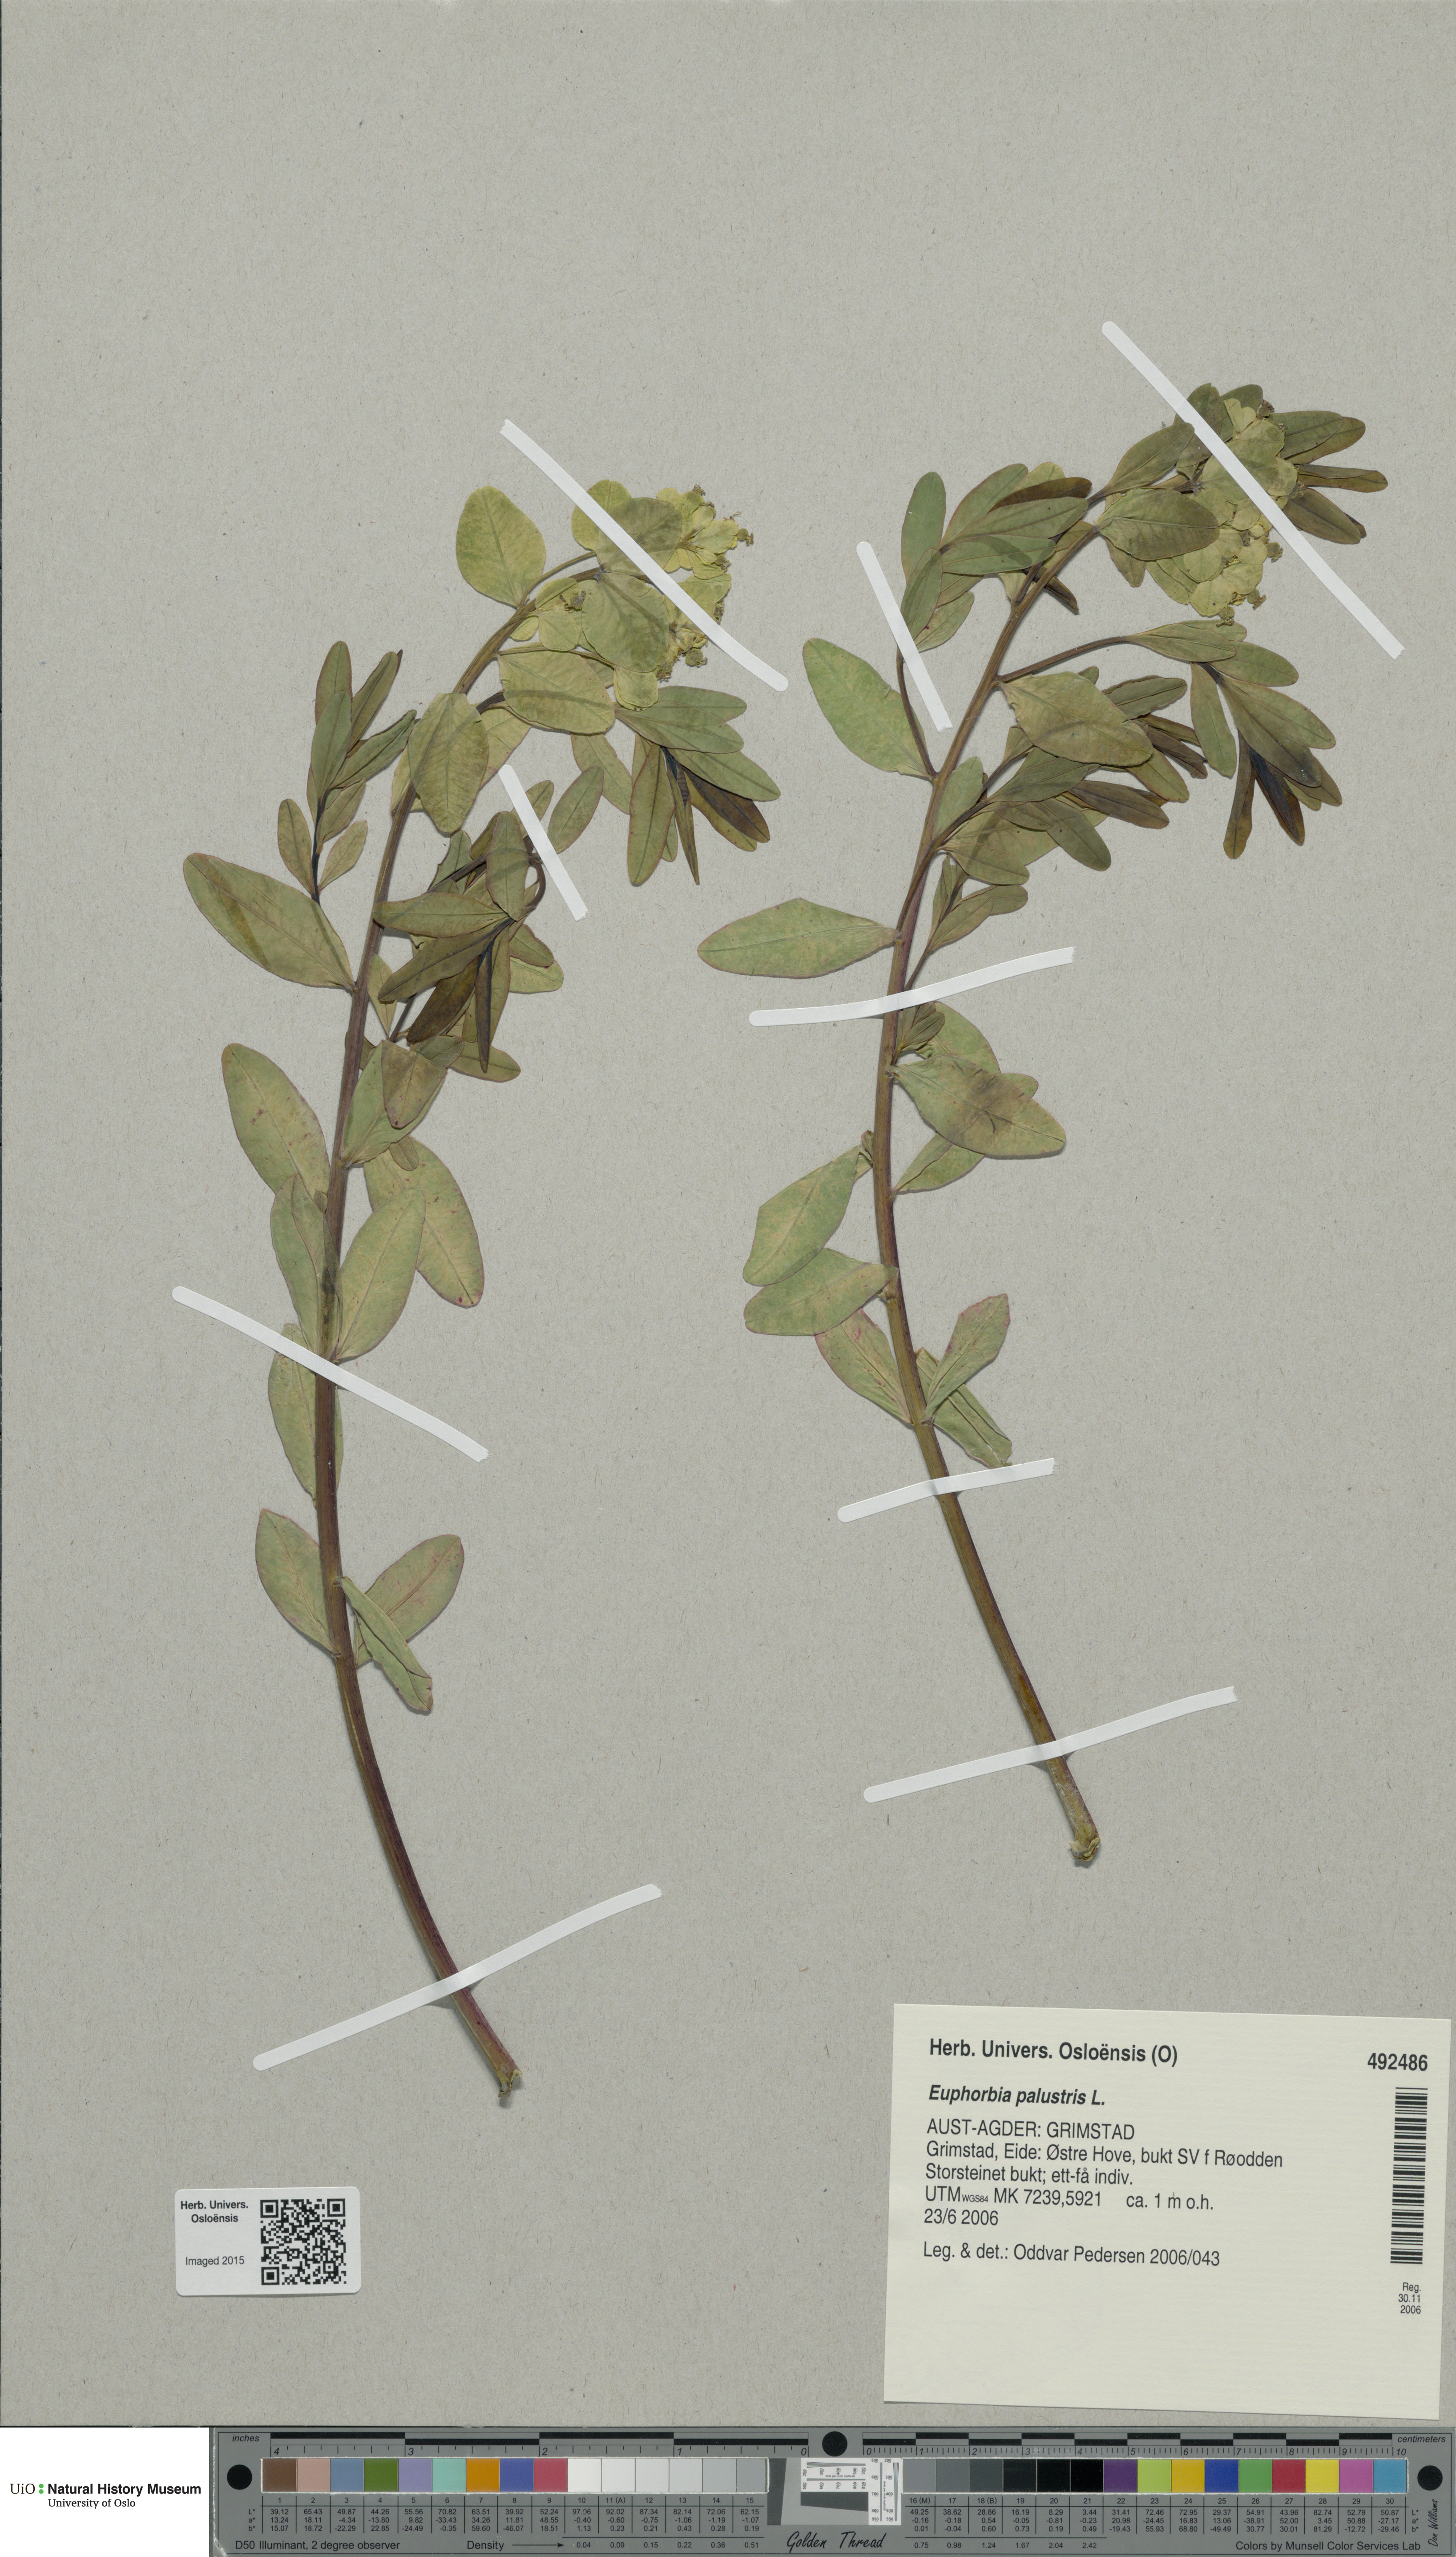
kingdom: Plantae
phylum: Tracheophyta
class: Magnoliopsida
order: Malpighiales
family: Euphorbiaceae
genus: Euphorbia
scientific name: Euphorbia palustris
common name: Marsh spurge
